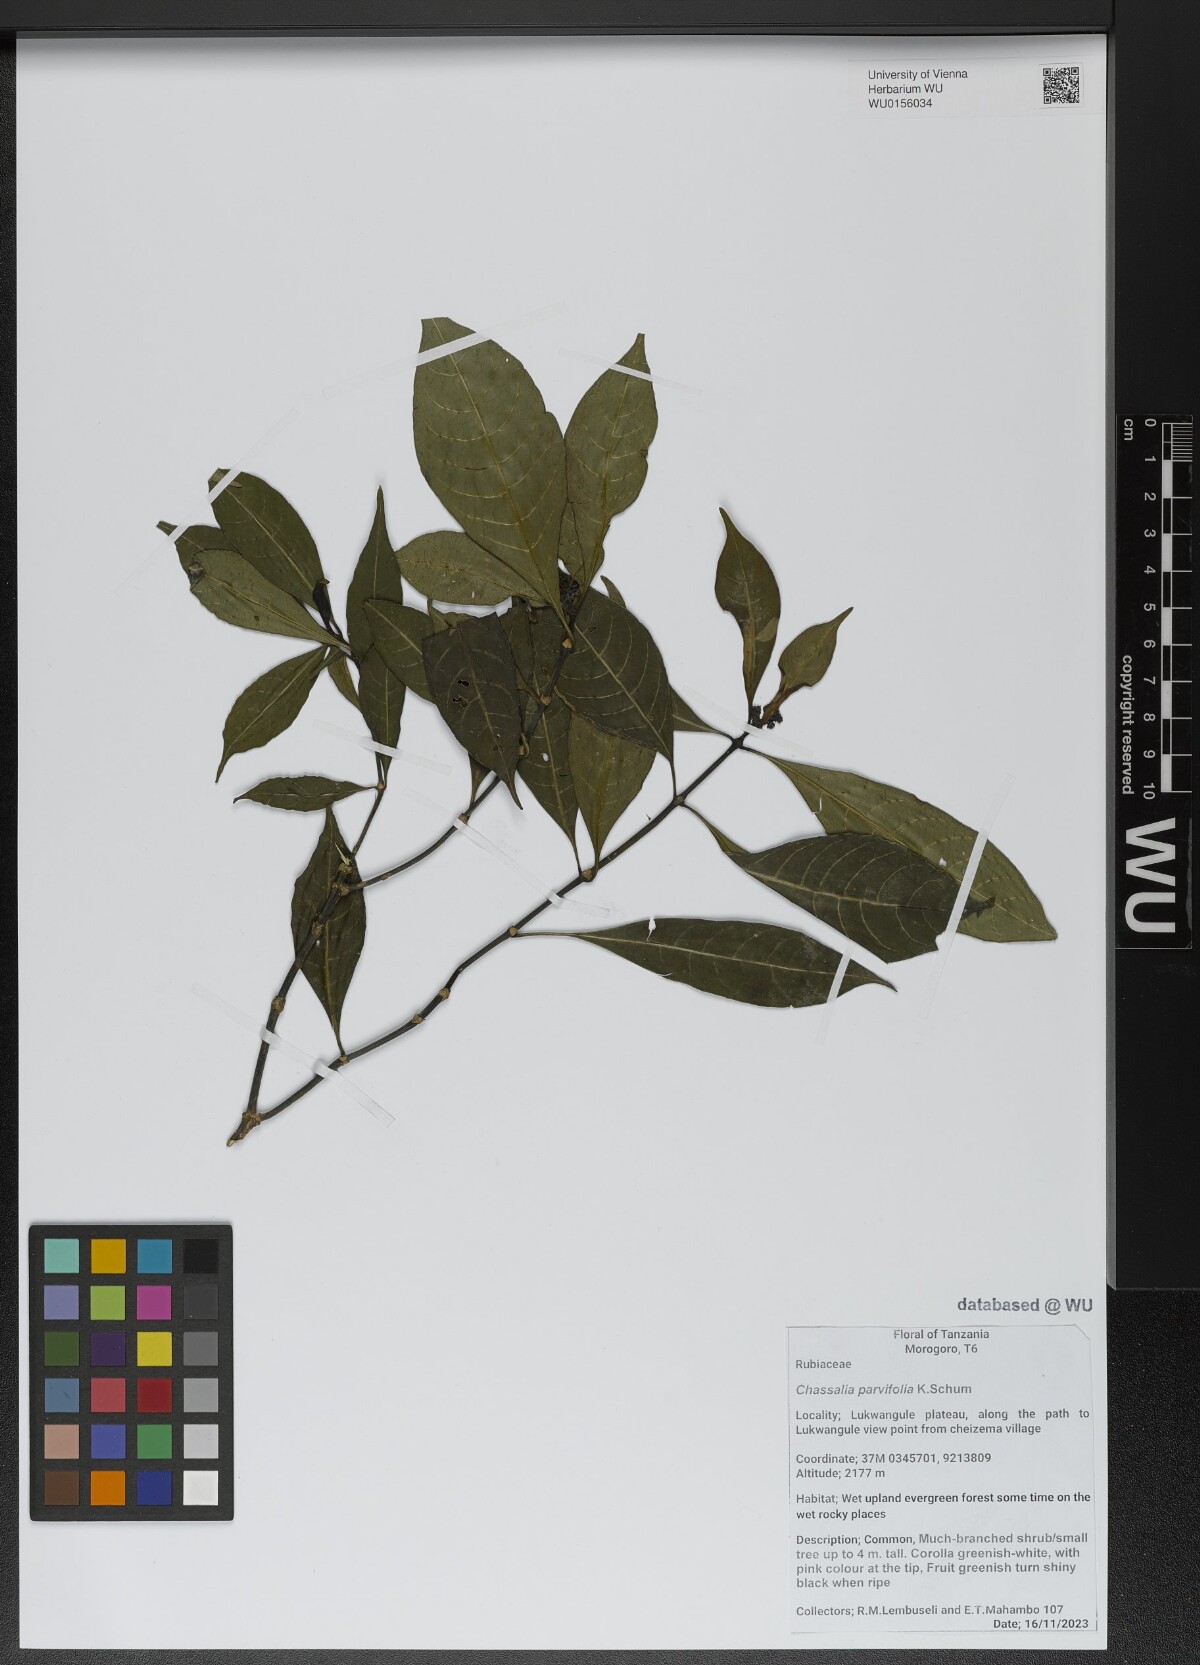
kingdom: Plantae
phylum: Tracheophyta
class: Magnoliopsida
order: Gentianales
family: Rubiaceae
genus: Chassalia
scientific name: Chassalia parvifolia
